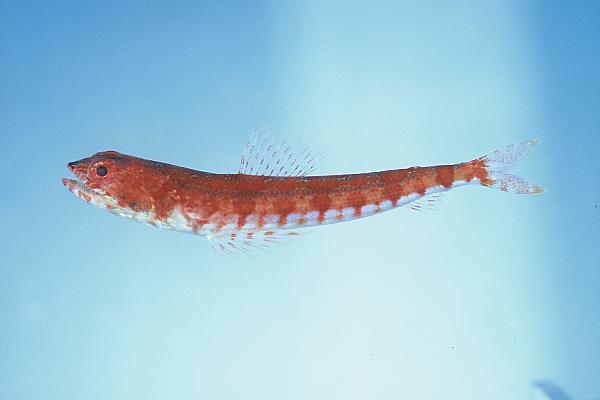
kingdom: Animalia
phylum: Chordata
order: Aulopiformes
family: Synodontidae
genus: Synodus
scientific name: Synodus dermatogenys
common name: Banded lizardfish
